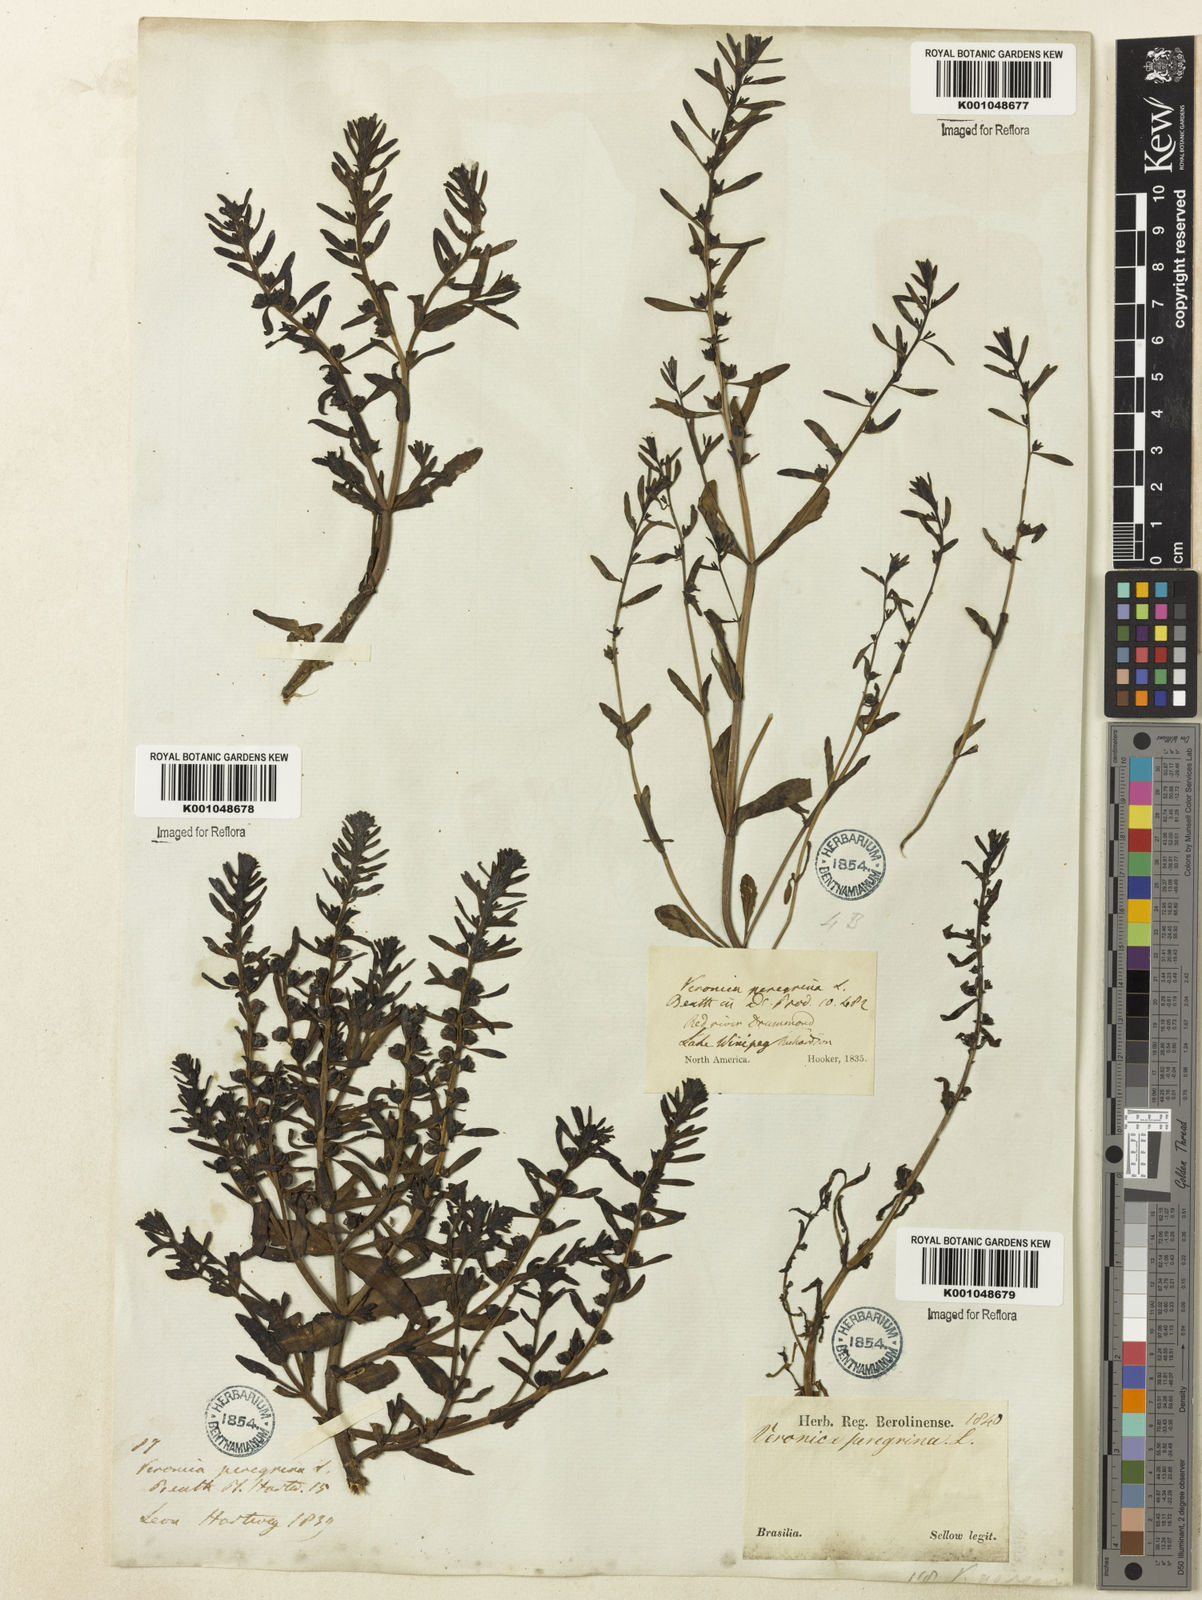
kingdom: Plantae
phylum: Tracheophyta
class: Magnoliopsida
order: Lamiales
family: Plantaginaceae
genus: Veronica
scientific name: Veronica peregrina
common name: Neckweed
